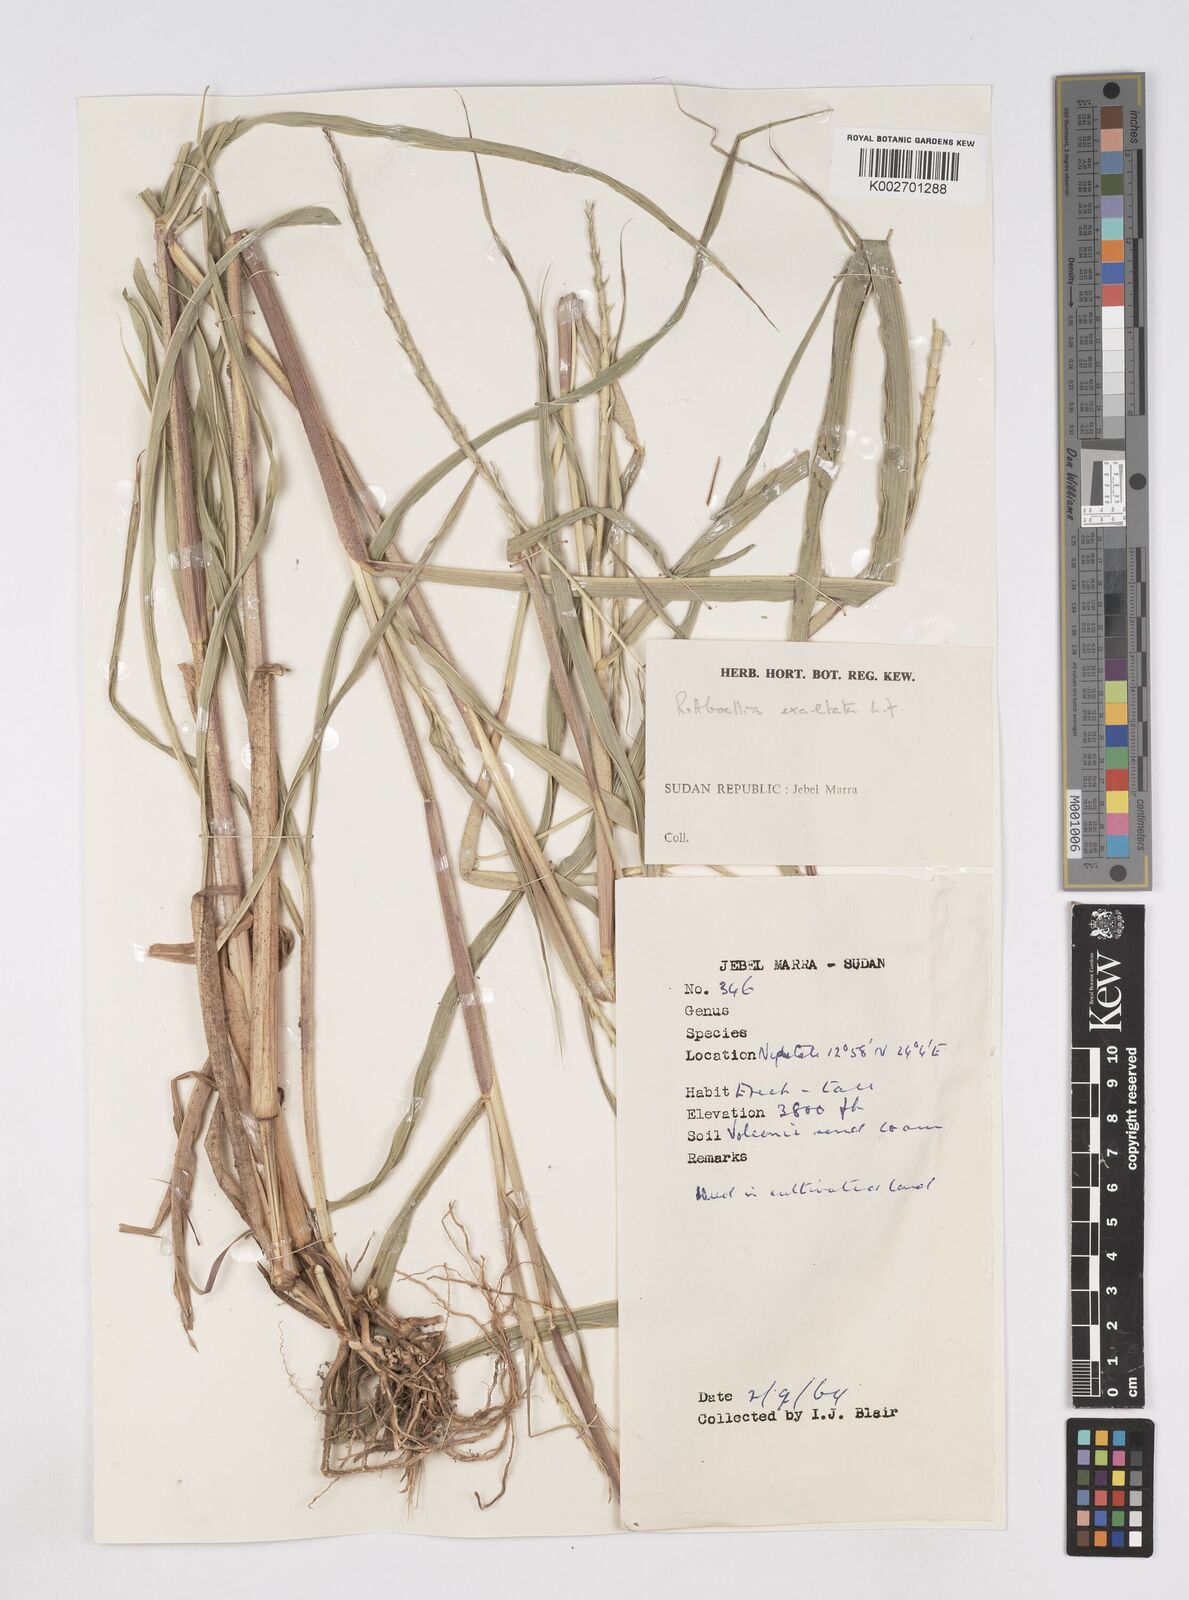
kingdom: Plantae
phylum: Tracheophyta
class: Liliopsida
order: Poales
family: Poaceae
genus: Rottboellia
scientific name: Rottboellia cochinchinensis
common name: Itchgrass
